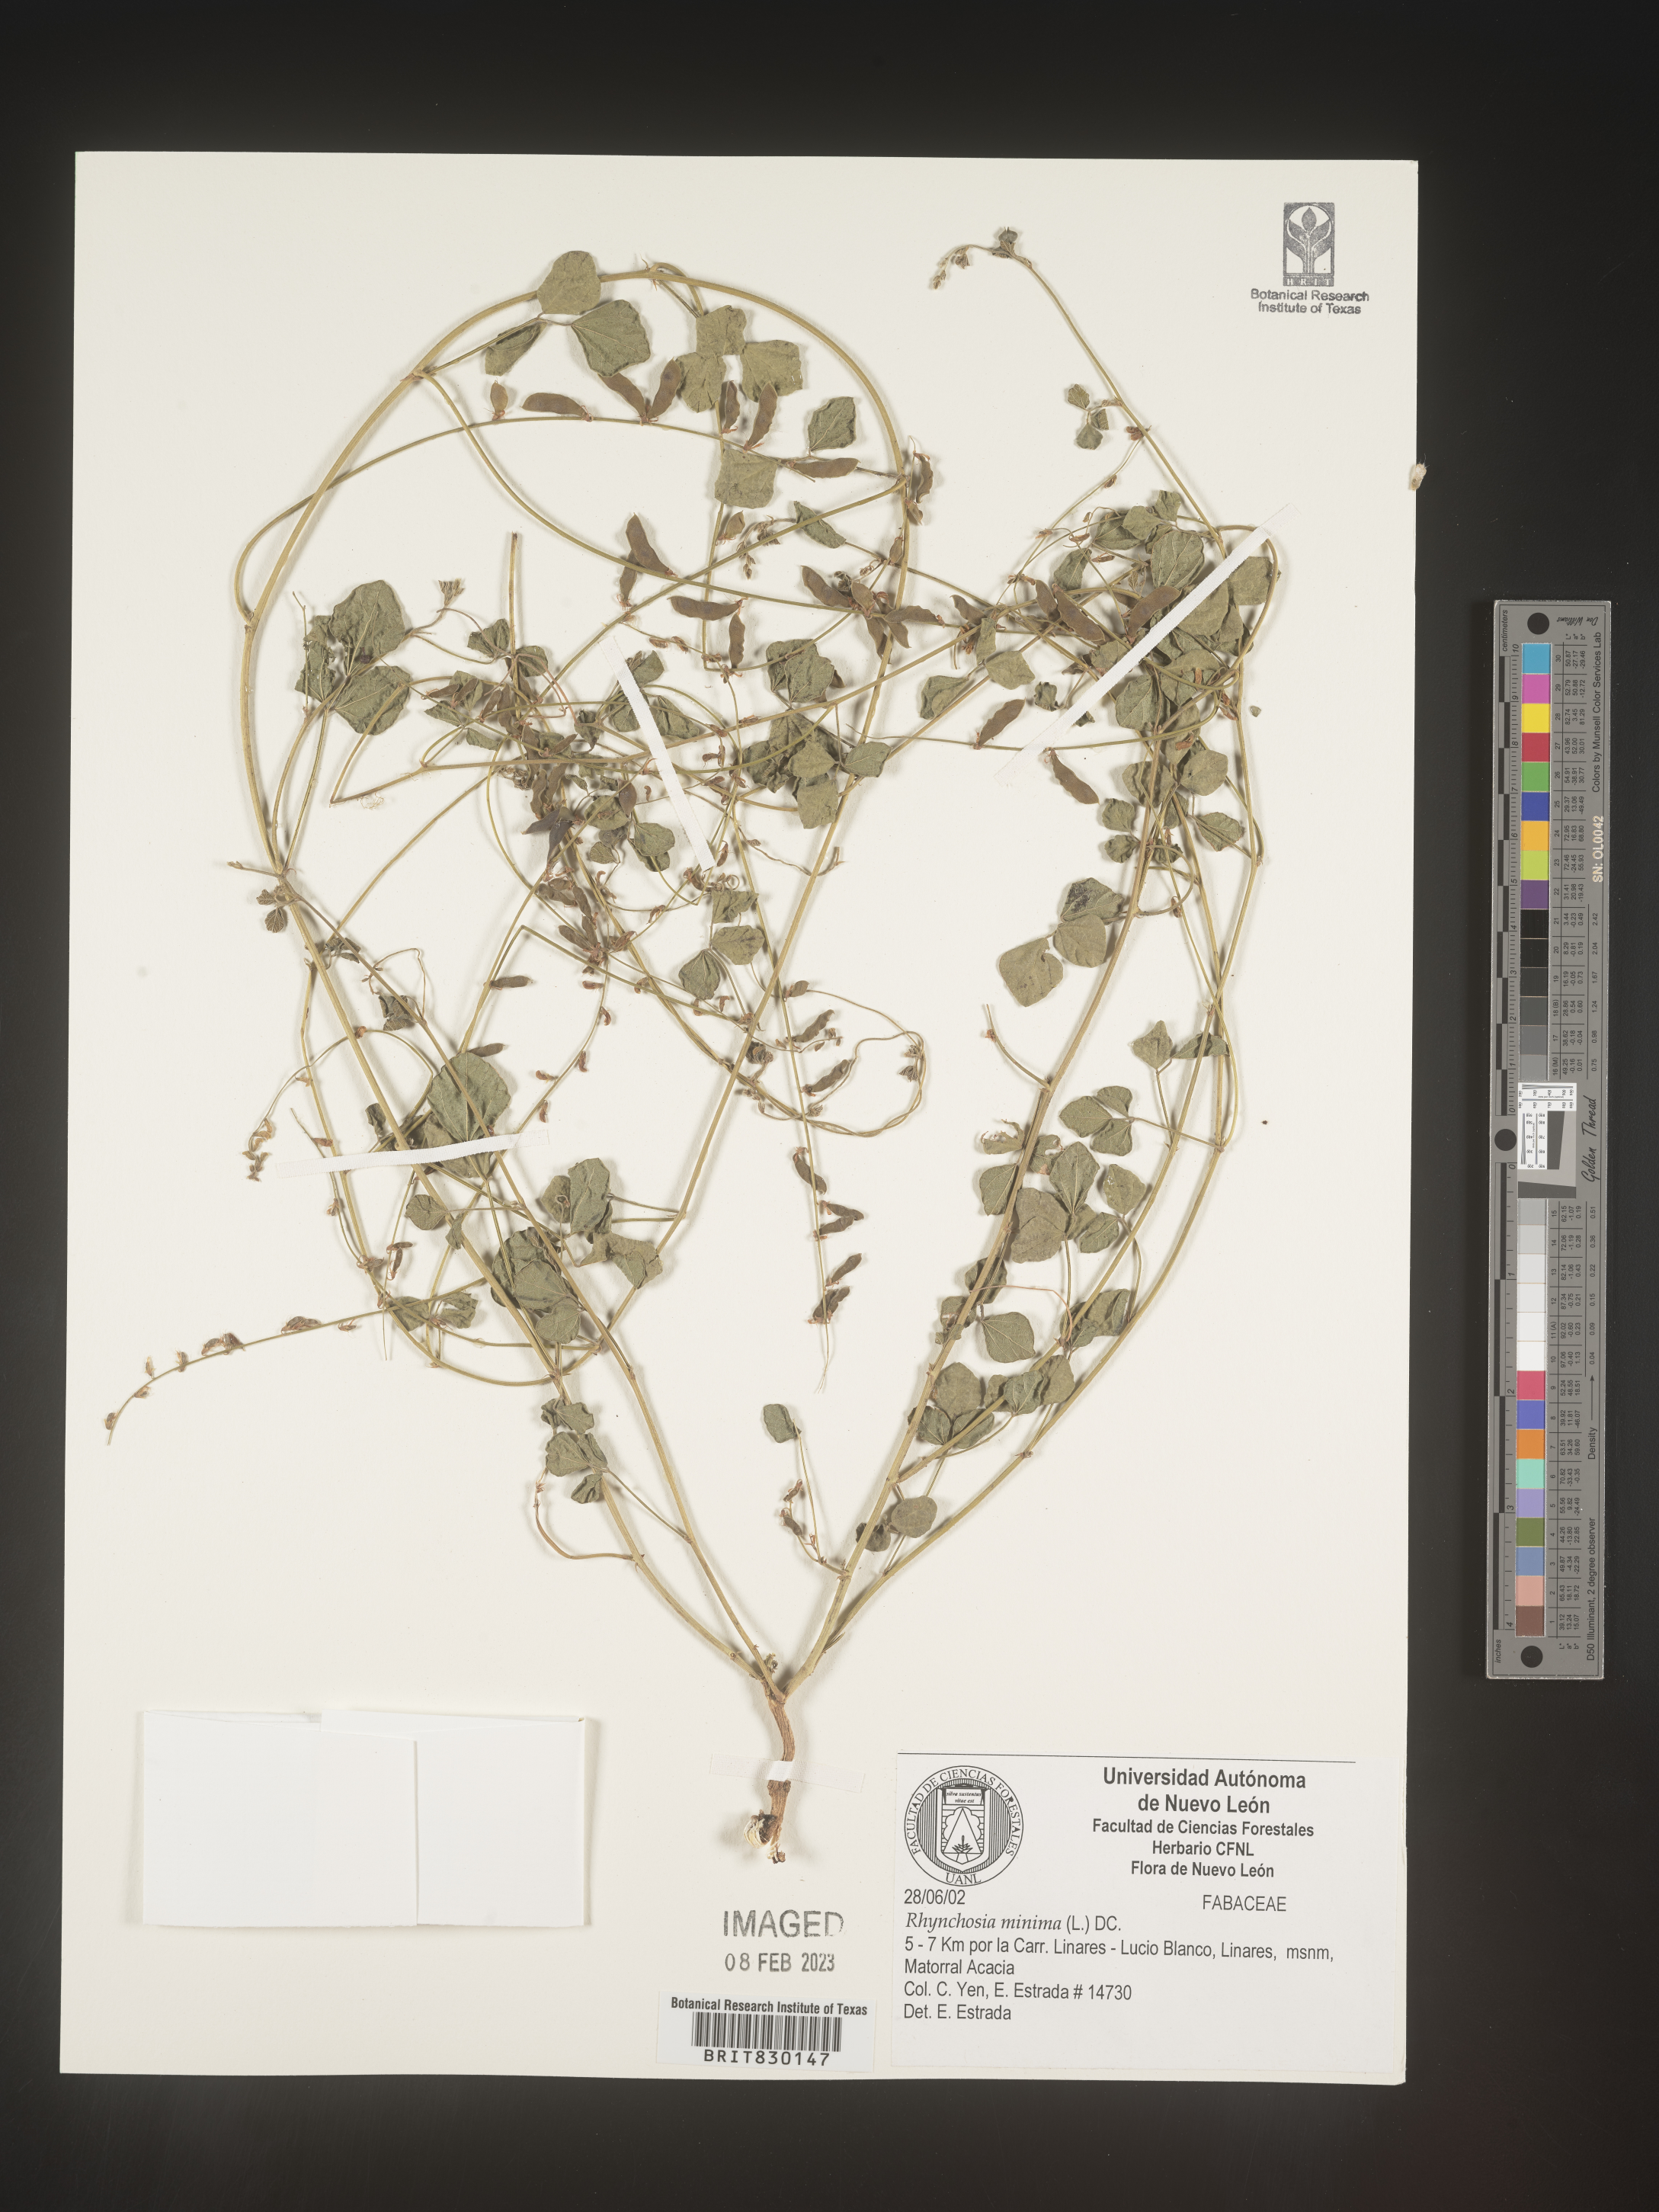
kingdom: Plantae
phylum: Tracheophyta
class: Magnoliopsida
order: Fabales
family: Fabaceae
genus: Rhynchosia
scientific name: Rhynchosia
